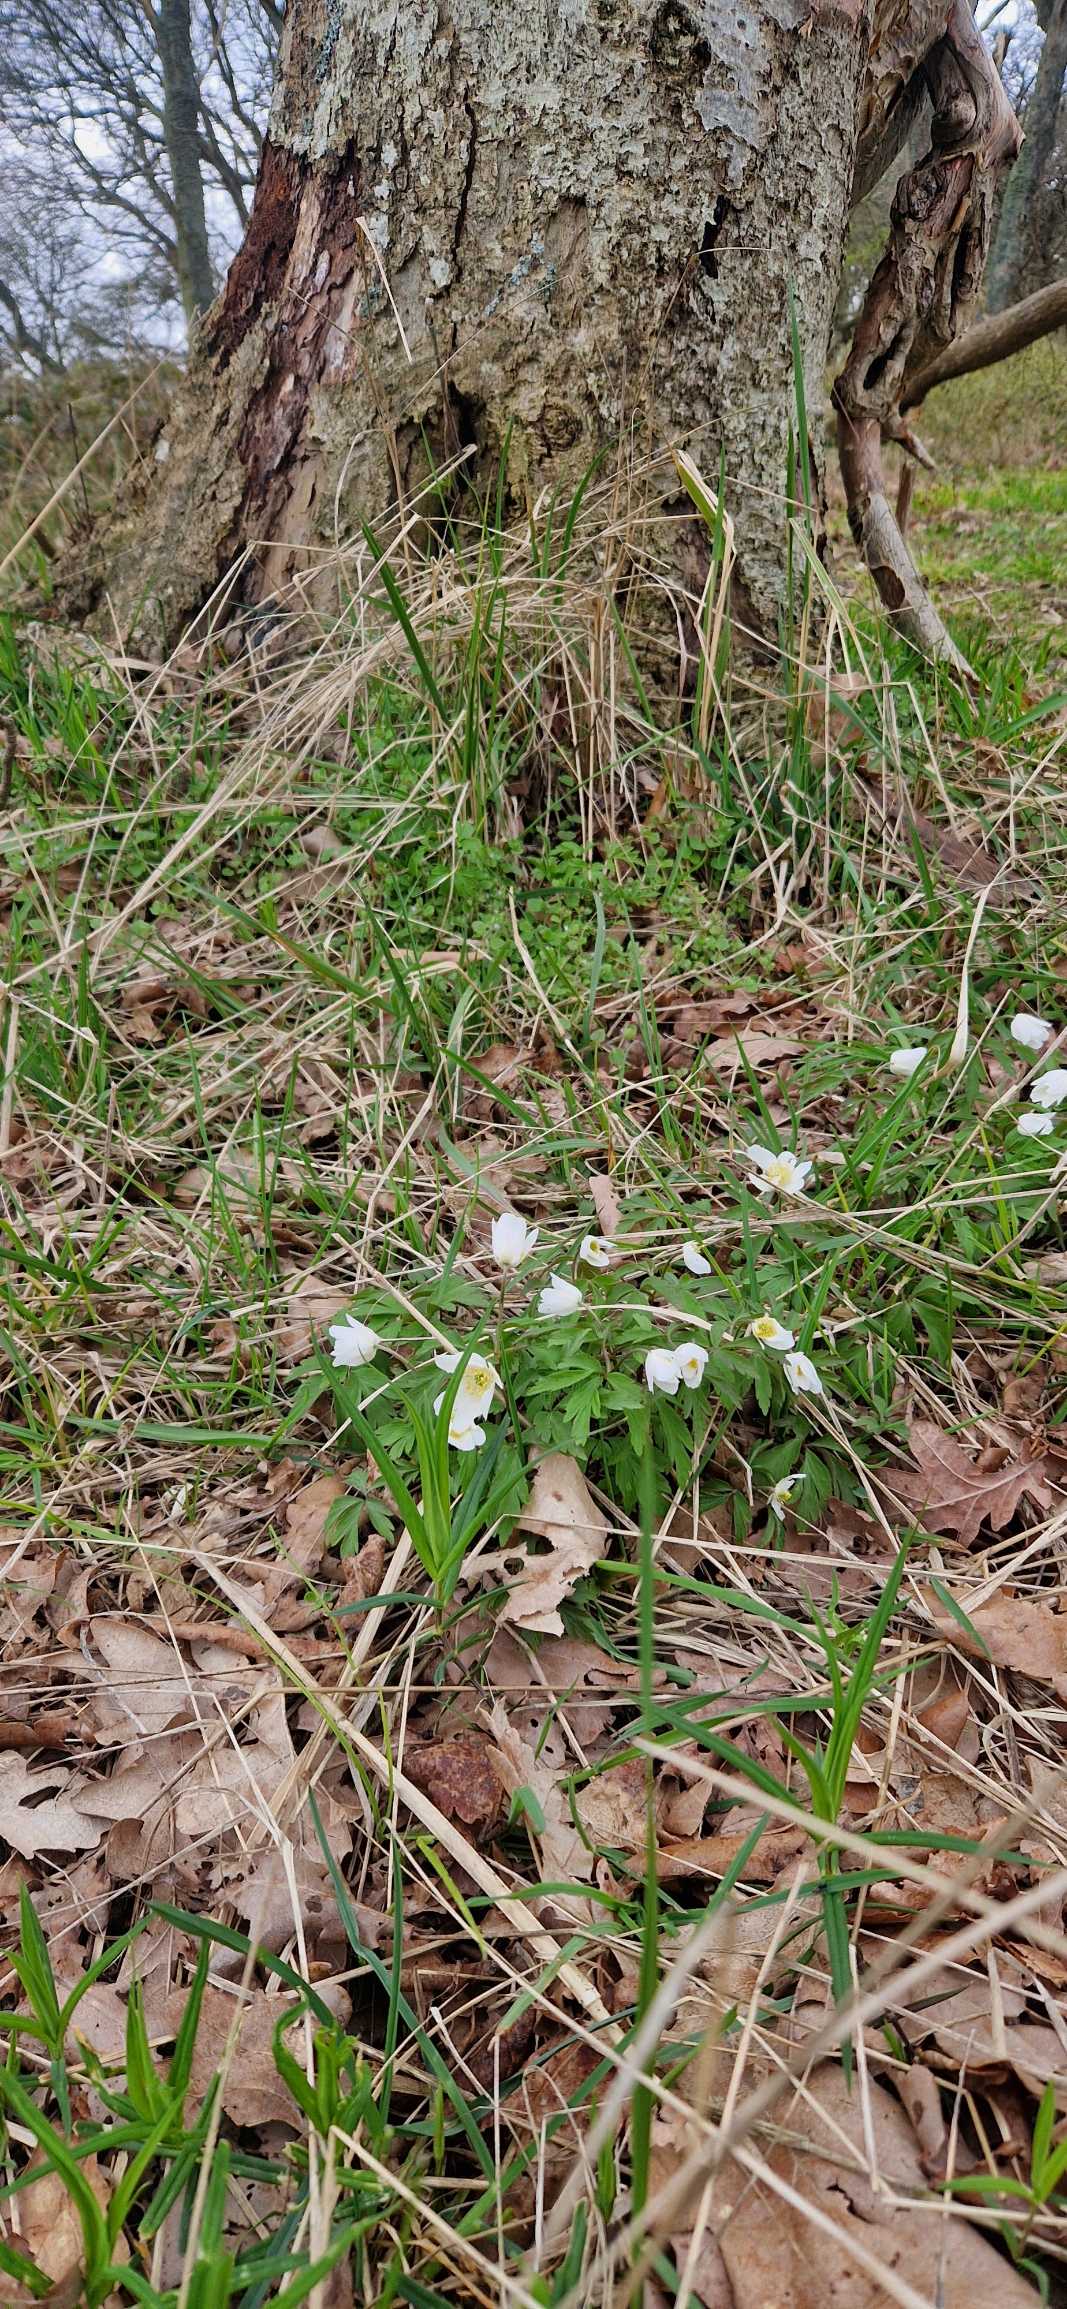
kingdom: Plantae
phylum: Tracheophyta
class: Magnoliopsida
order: Ranunculales
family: Ranunculaceae
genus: Anemone
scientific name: Anemone nemorosa
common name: Hvid anemone
